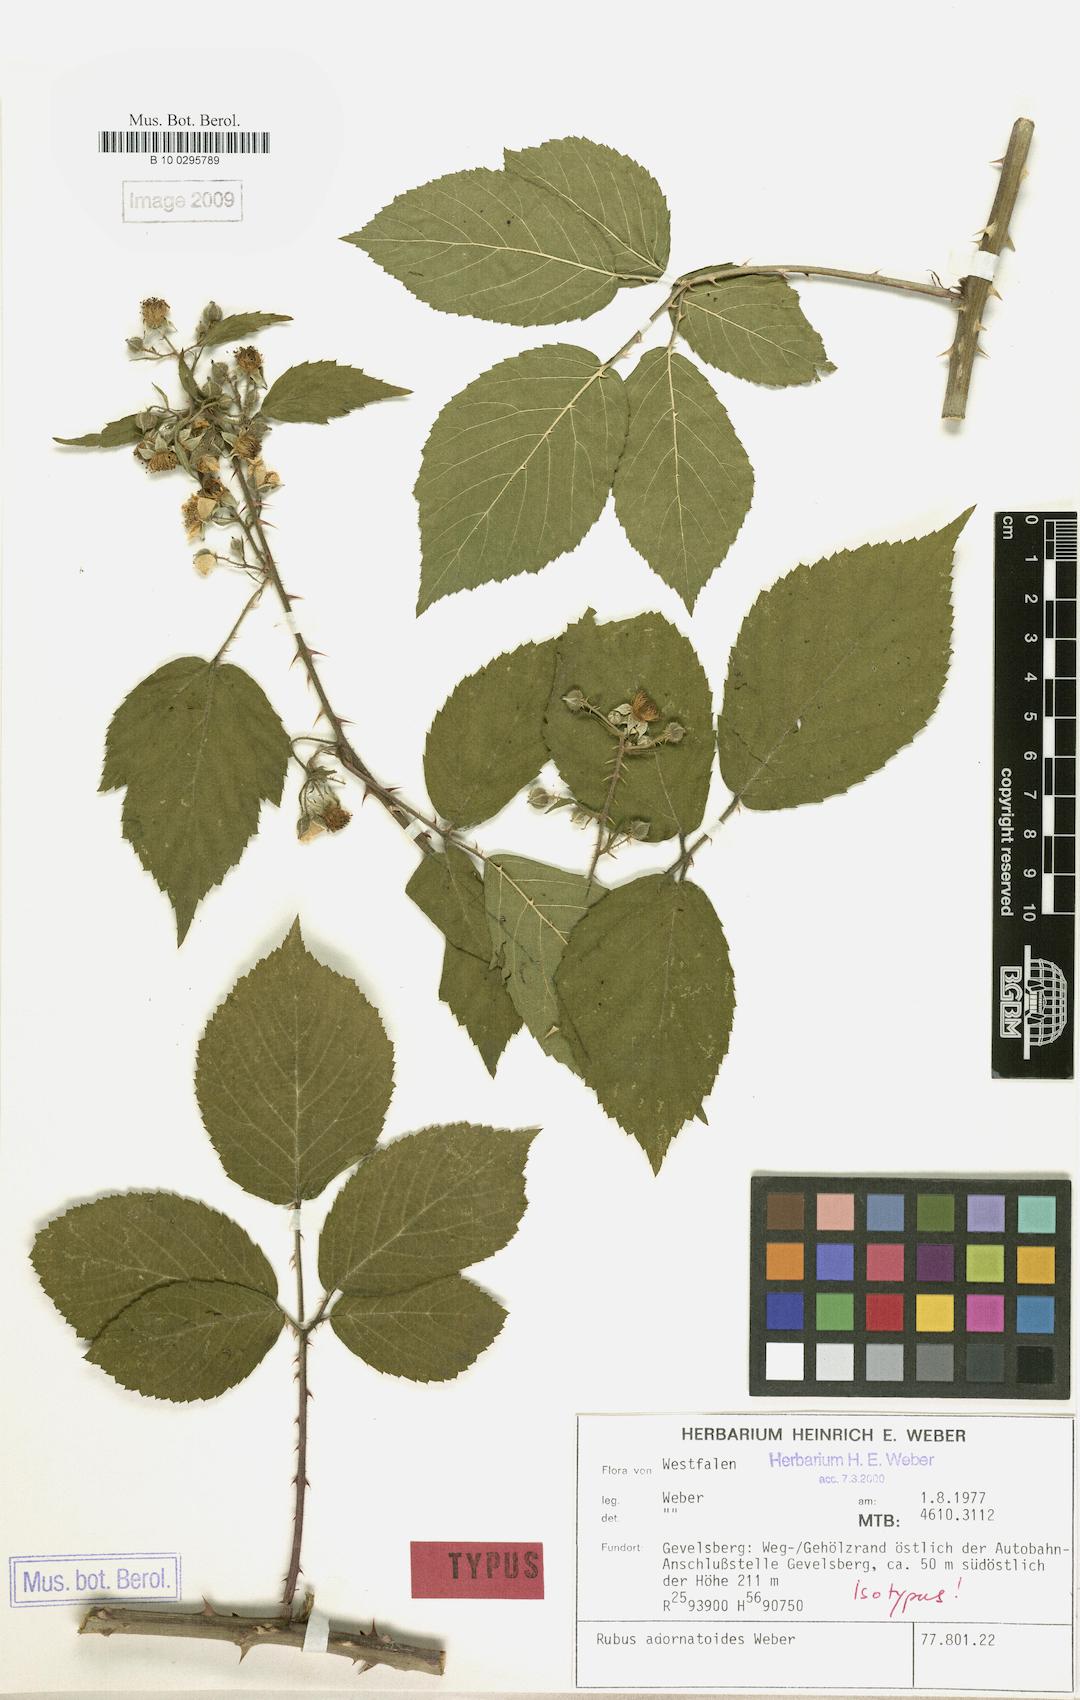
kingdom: Plantae
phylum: Tracheophyta
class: Magnoliopsida
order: Rosales
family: Rosaceae
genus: Rubus
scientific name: Rubus gravetii
